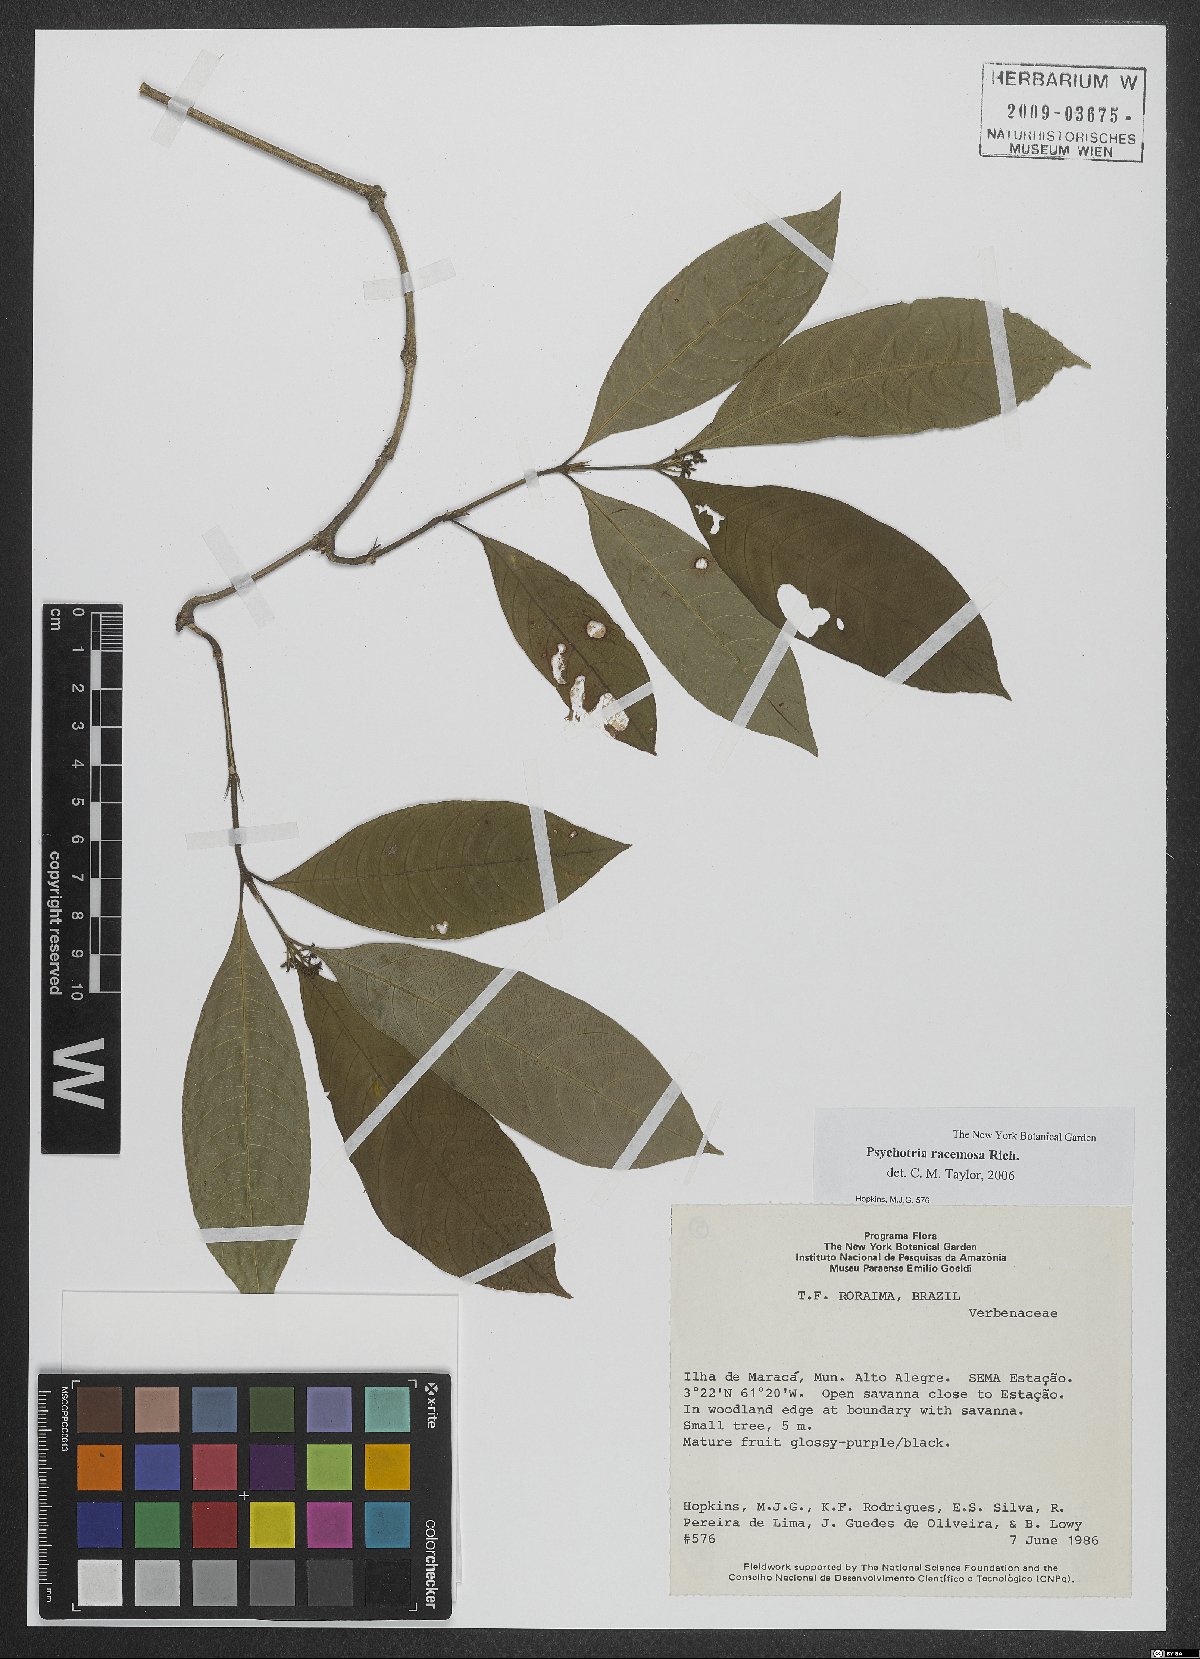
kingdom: Plantae
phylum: Tracheophyta
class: Magnoliopsida
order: Gentianales
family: Rubiaceae
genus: Palicourea
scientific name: Palicourea racemosa
